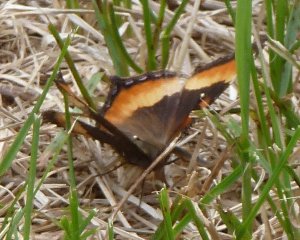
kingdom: Animalia
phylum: Arthropoda
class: Insecta
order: Lepidoptera
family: Nymphalidae
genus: Aglais
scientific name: Aglais milberti
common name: Milbert's Tortoiseshell
